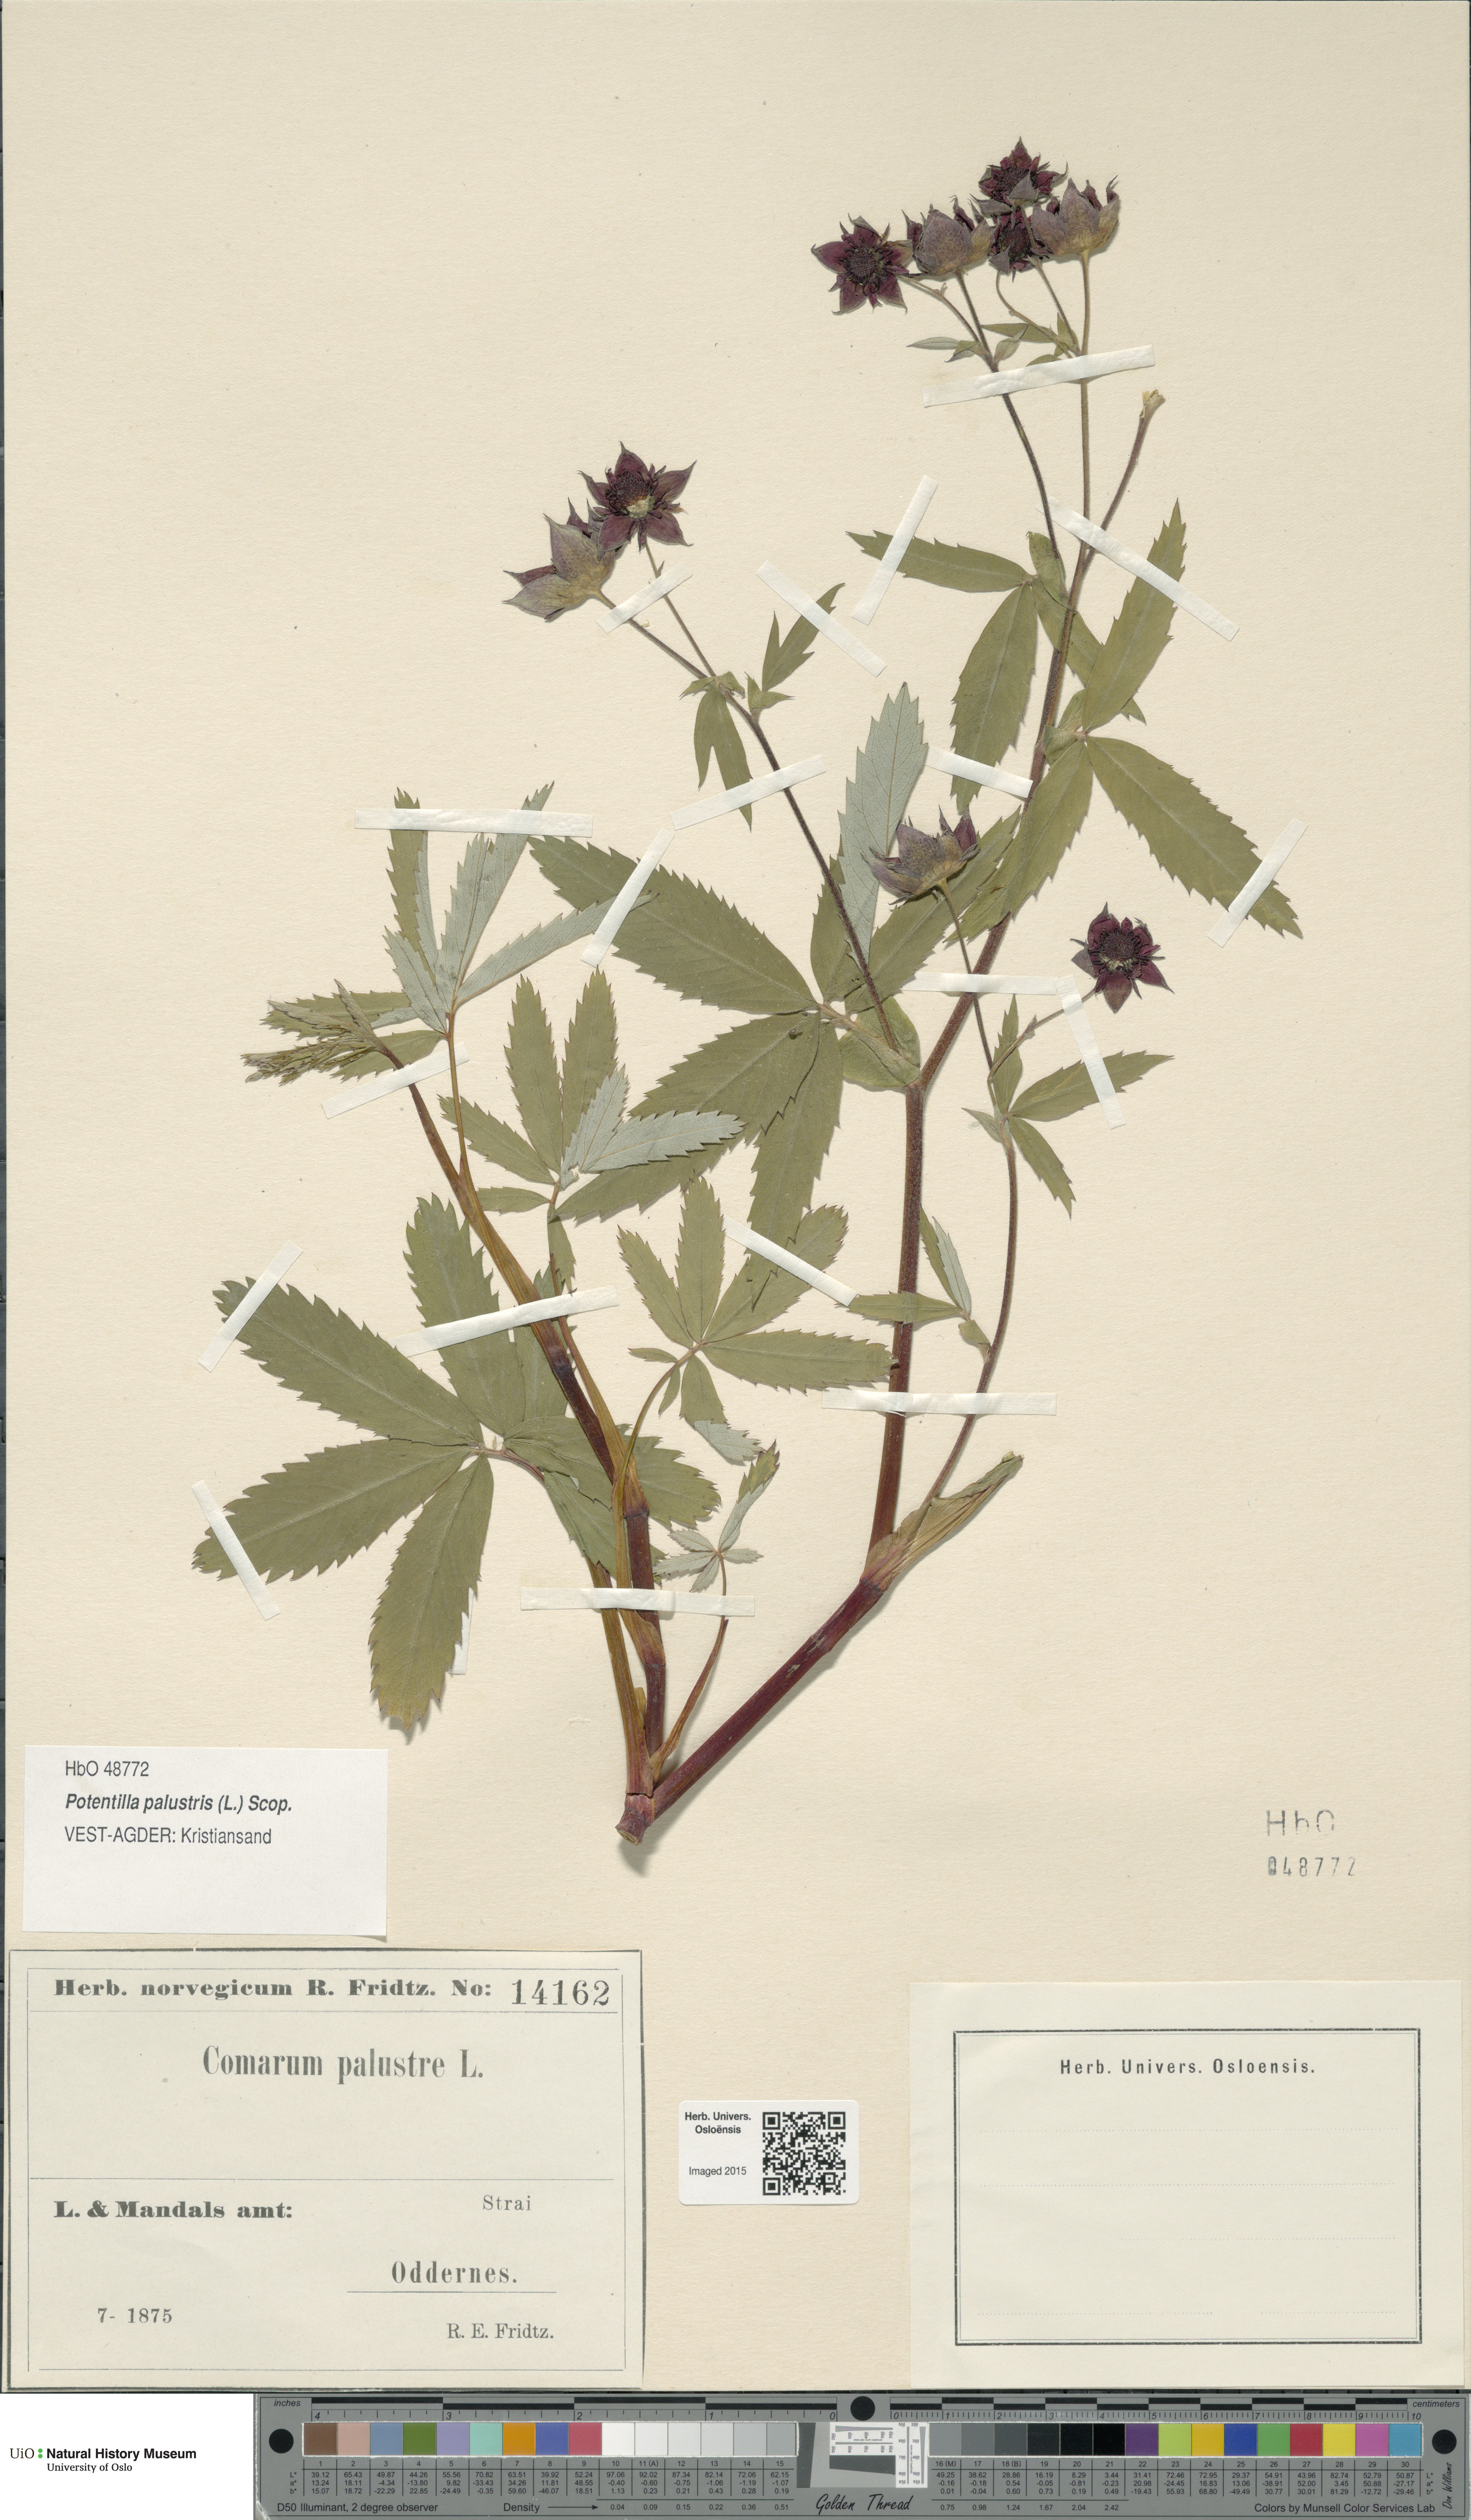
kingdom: Plantae
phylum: Tracheophyta
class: Magnoliopsida
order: Rosales
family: Rosaceae
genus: Comarum
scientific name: Comarum palustre
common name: Marsh cinquefoil
